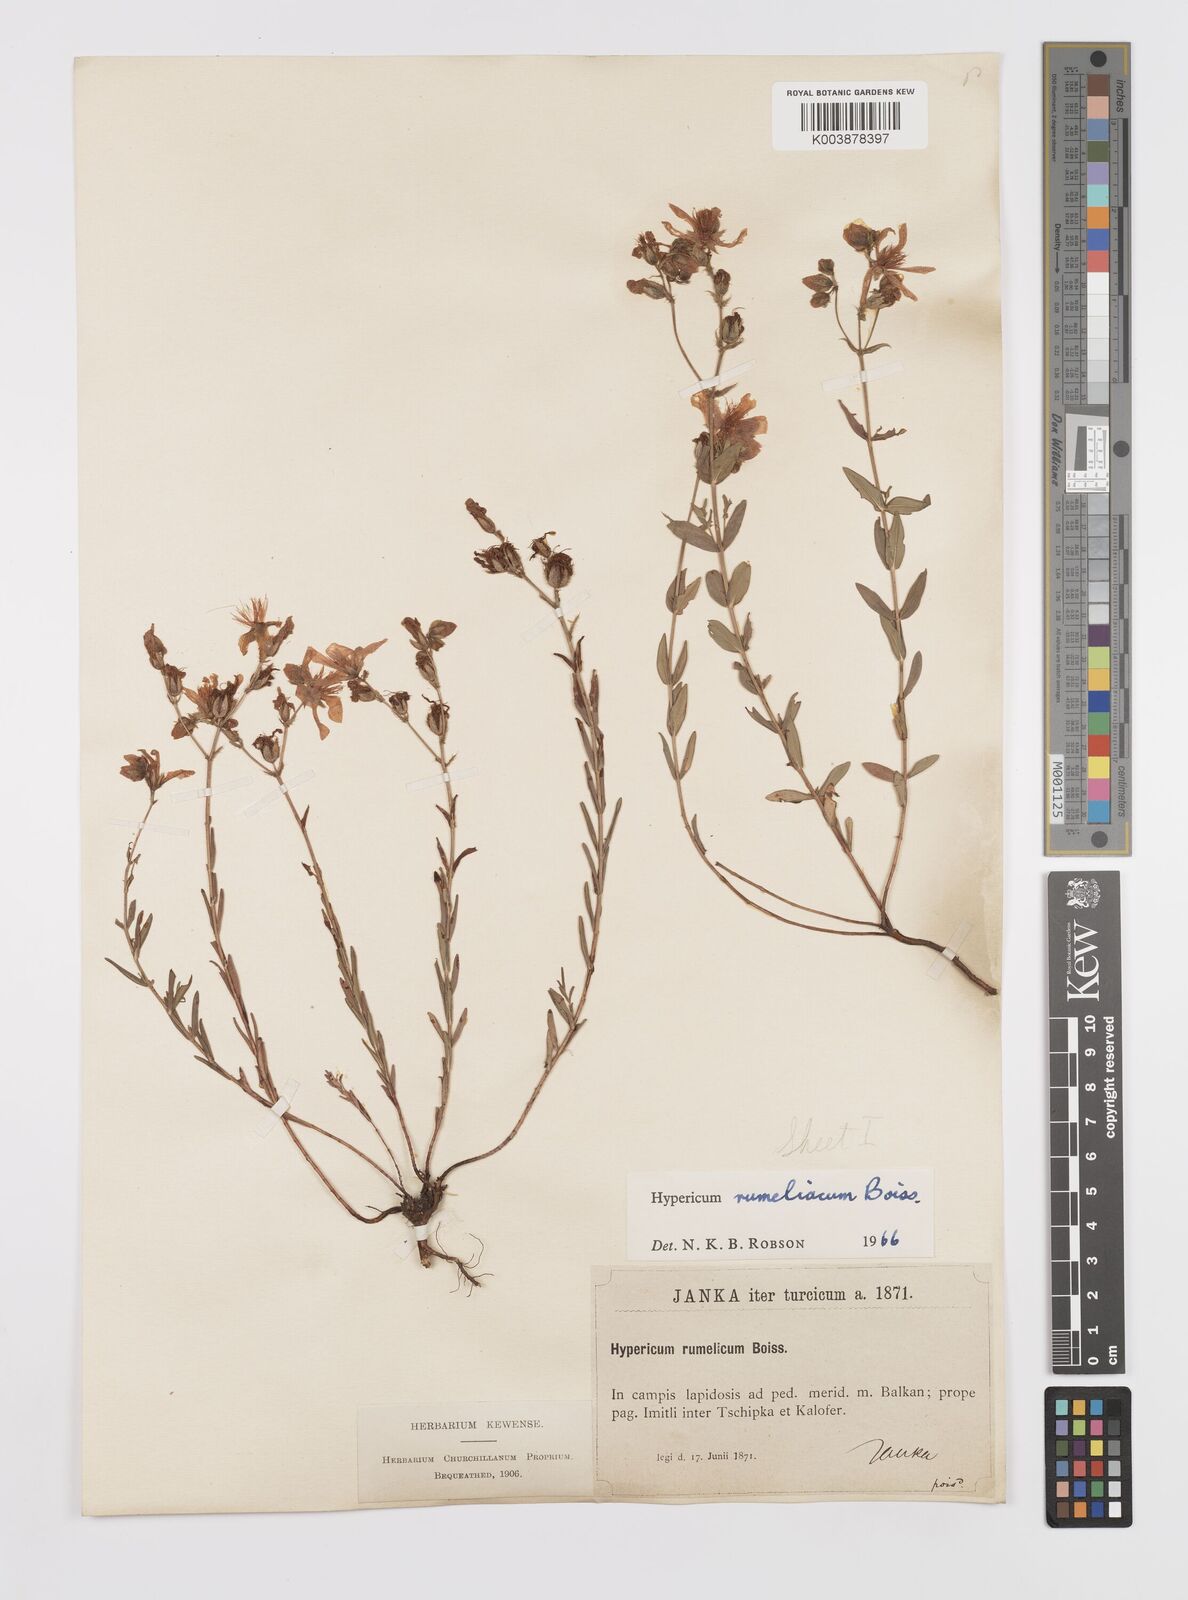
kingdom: Plantae
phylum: Tracheophyta
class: Magnoliopsida
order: Malpighiales
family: Hypericaceae
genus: Hypericum
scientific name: Hypericum rumeliacum
